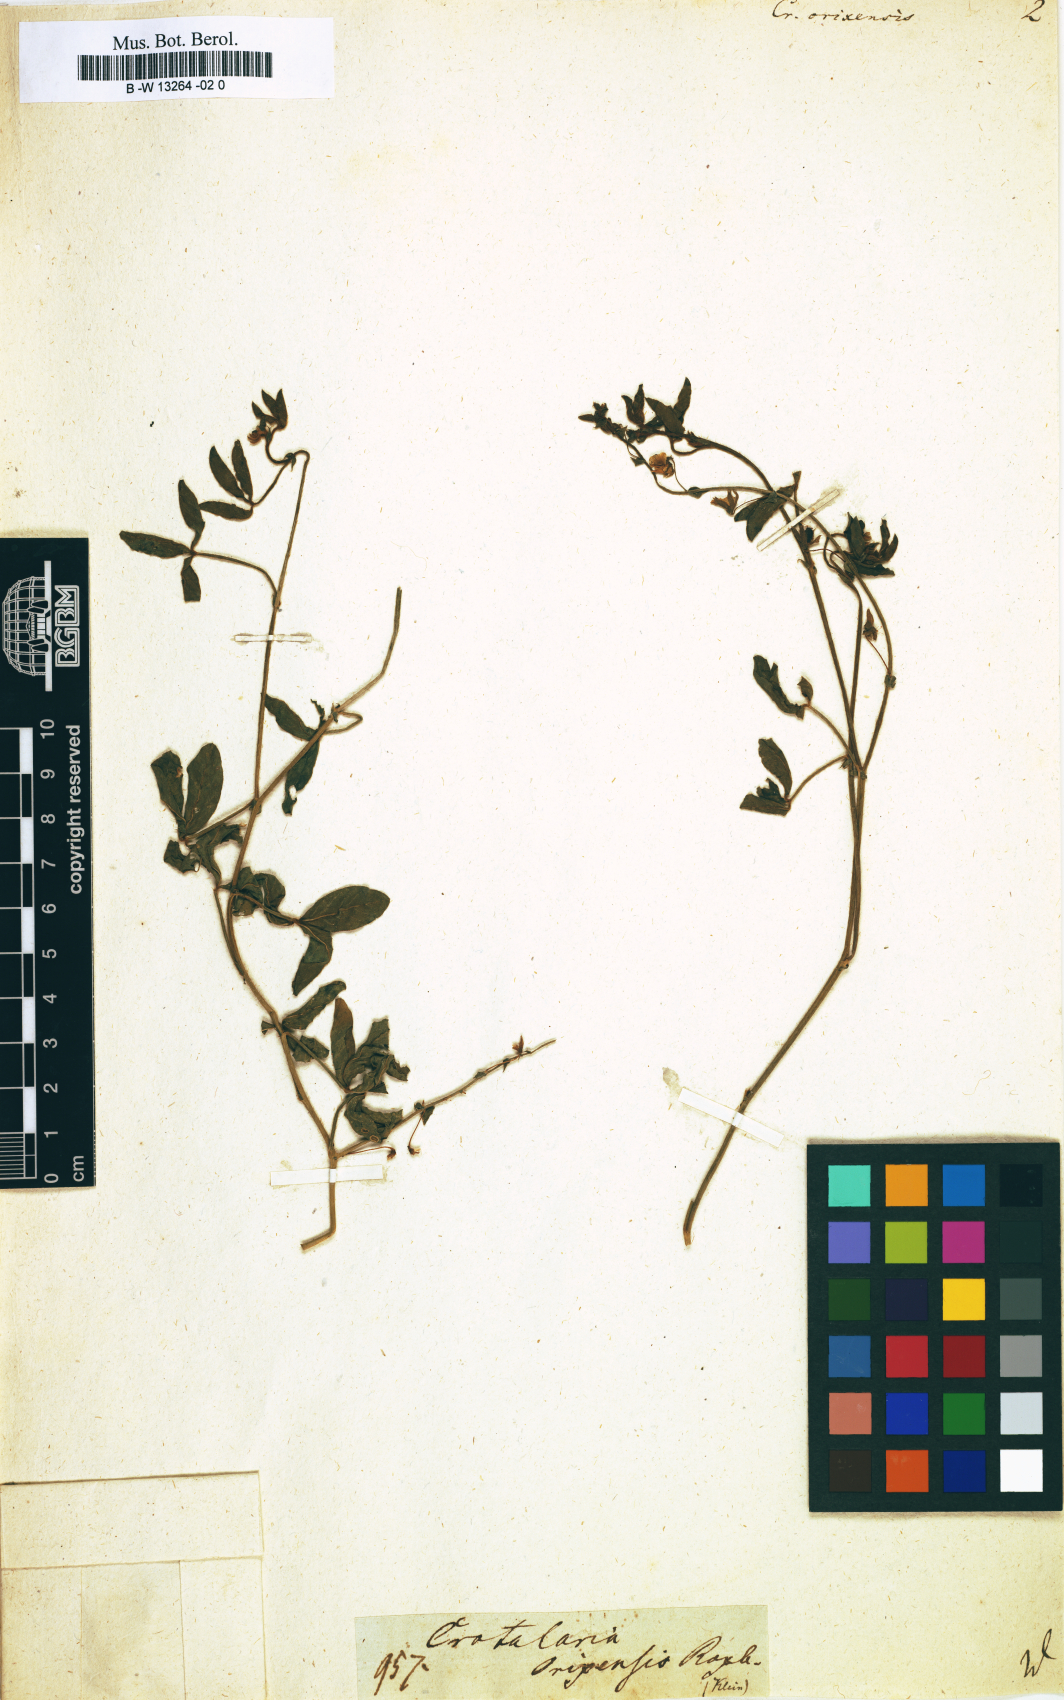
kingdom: Plantae
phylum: Tracheophyta
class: Magnoliopsida
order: Fabales
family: Fabaceae
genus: Crotalaria
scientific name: Crotalaria orixensis
